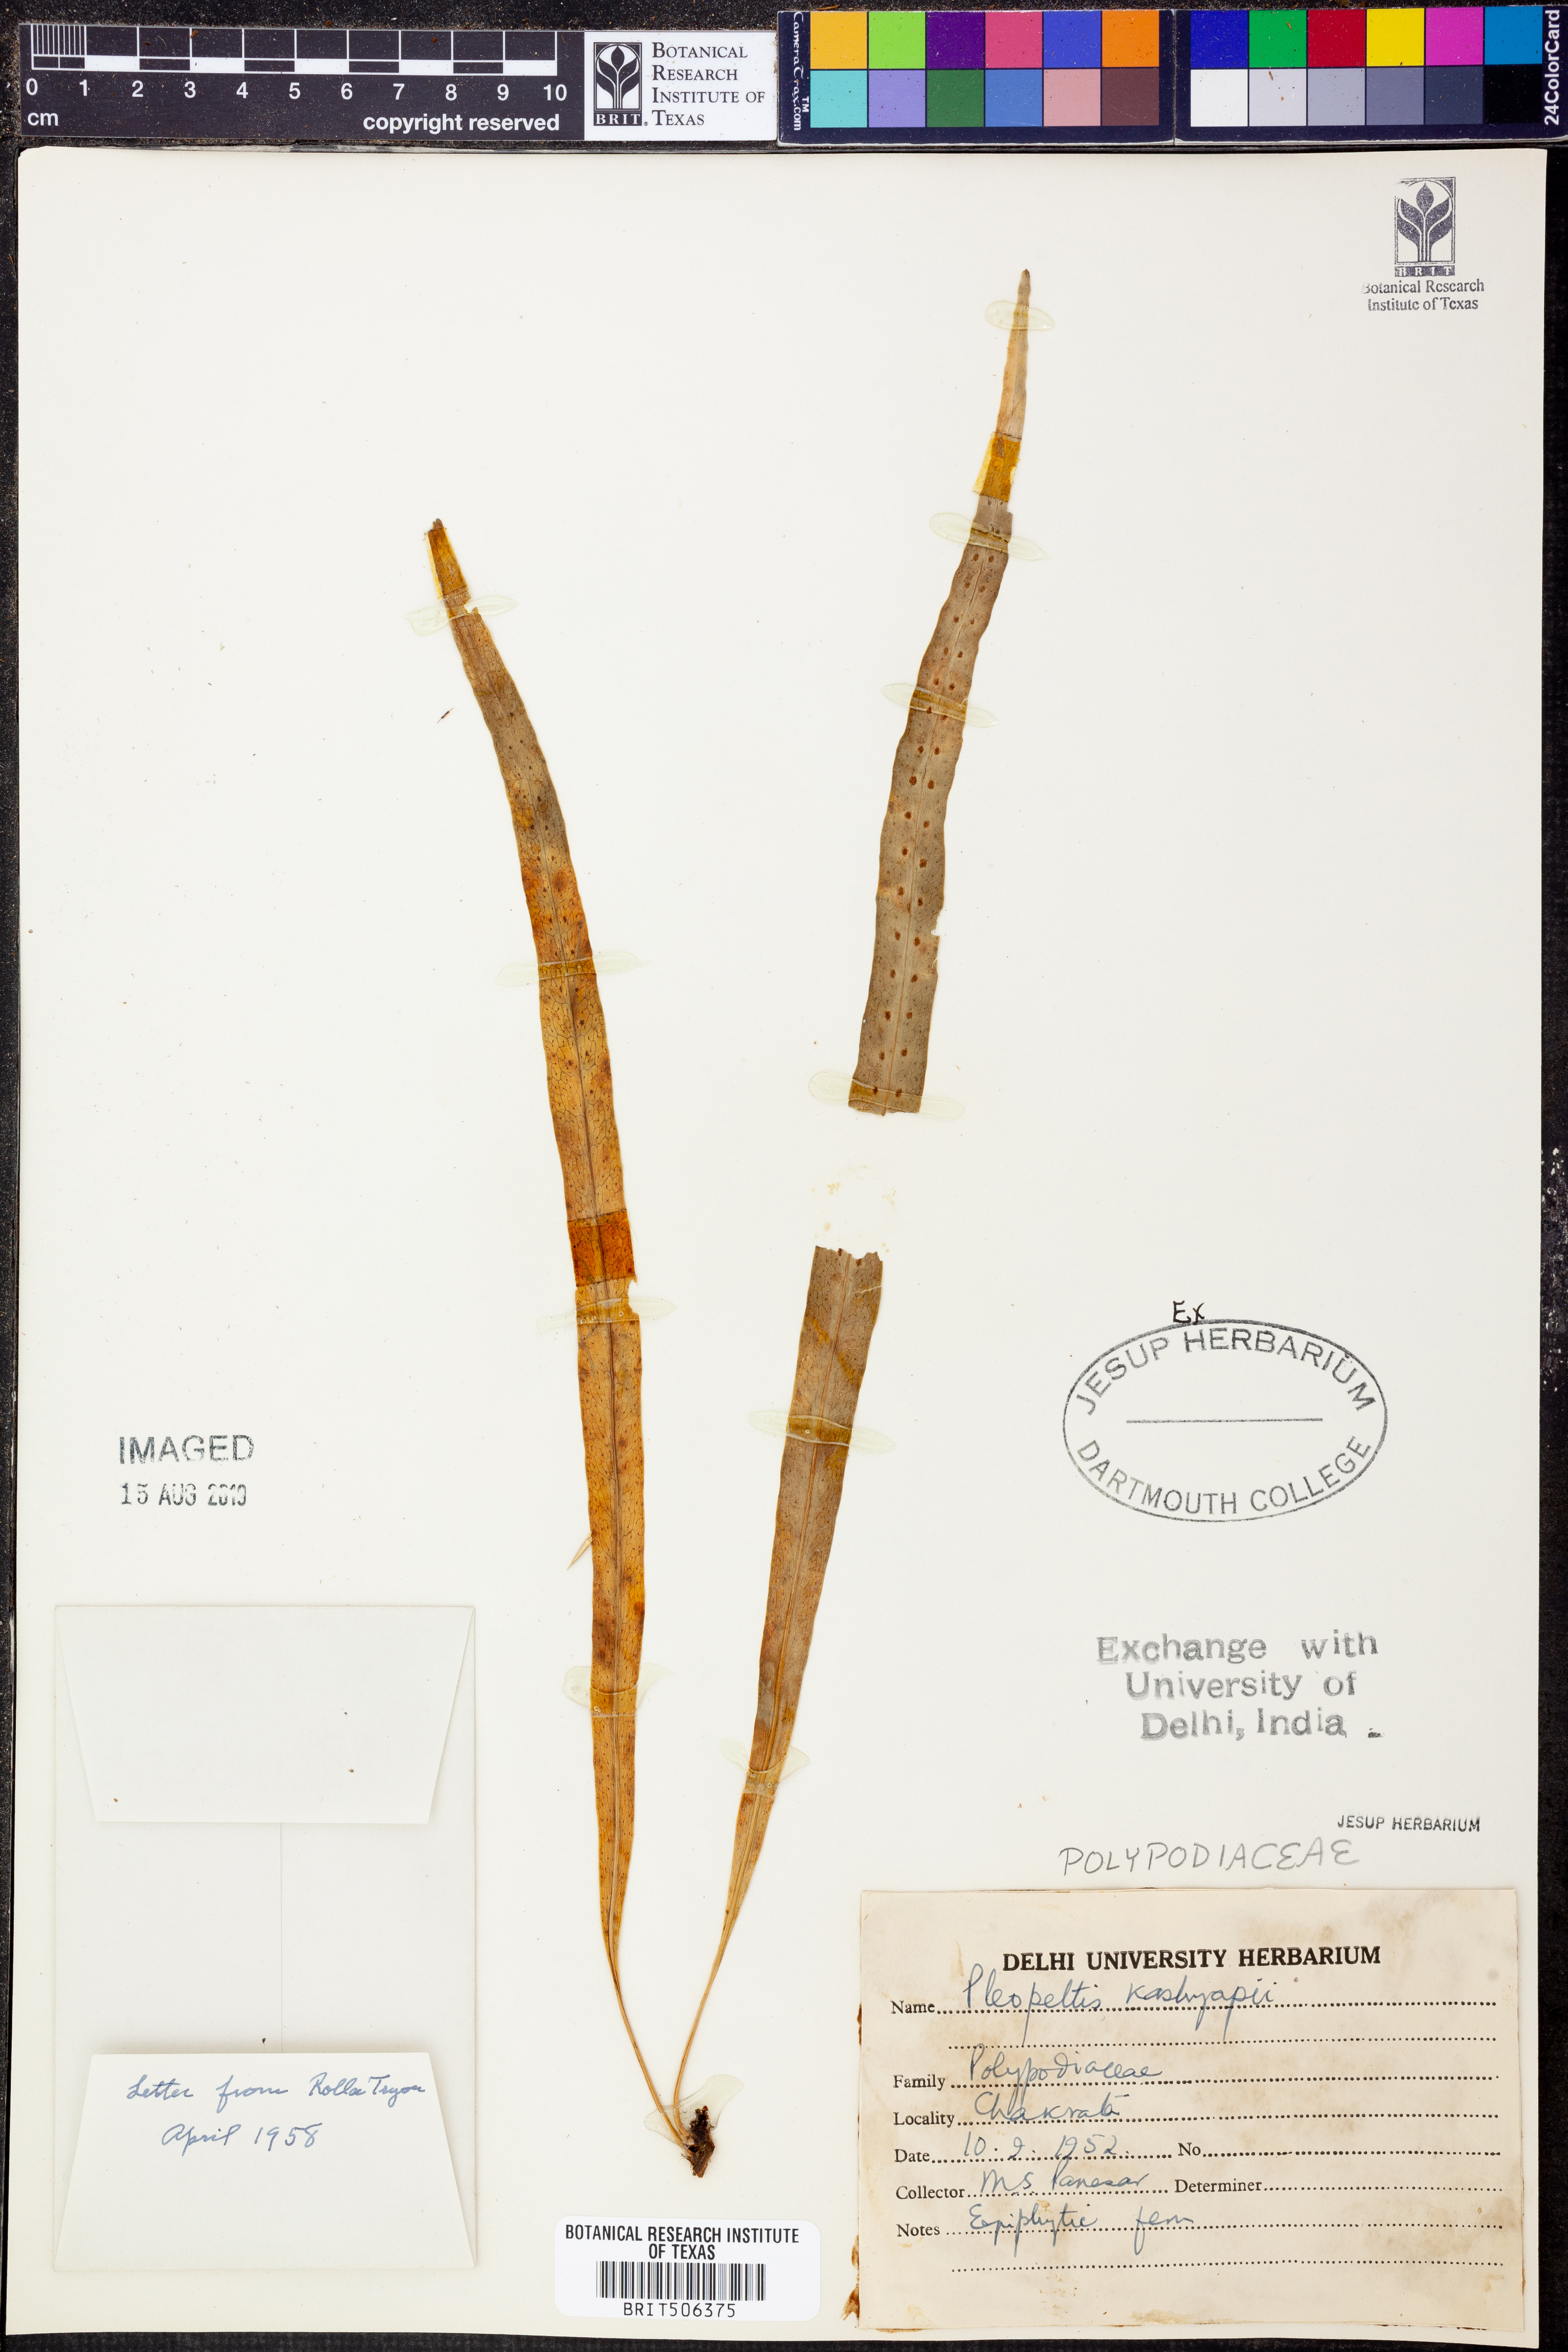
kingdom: Plantae
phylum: Tracheophyta
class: Polypodiopsida
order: Polypodiales
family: Polypodiaceae
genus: Lepisorus
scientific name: Lepisorus bicolor
